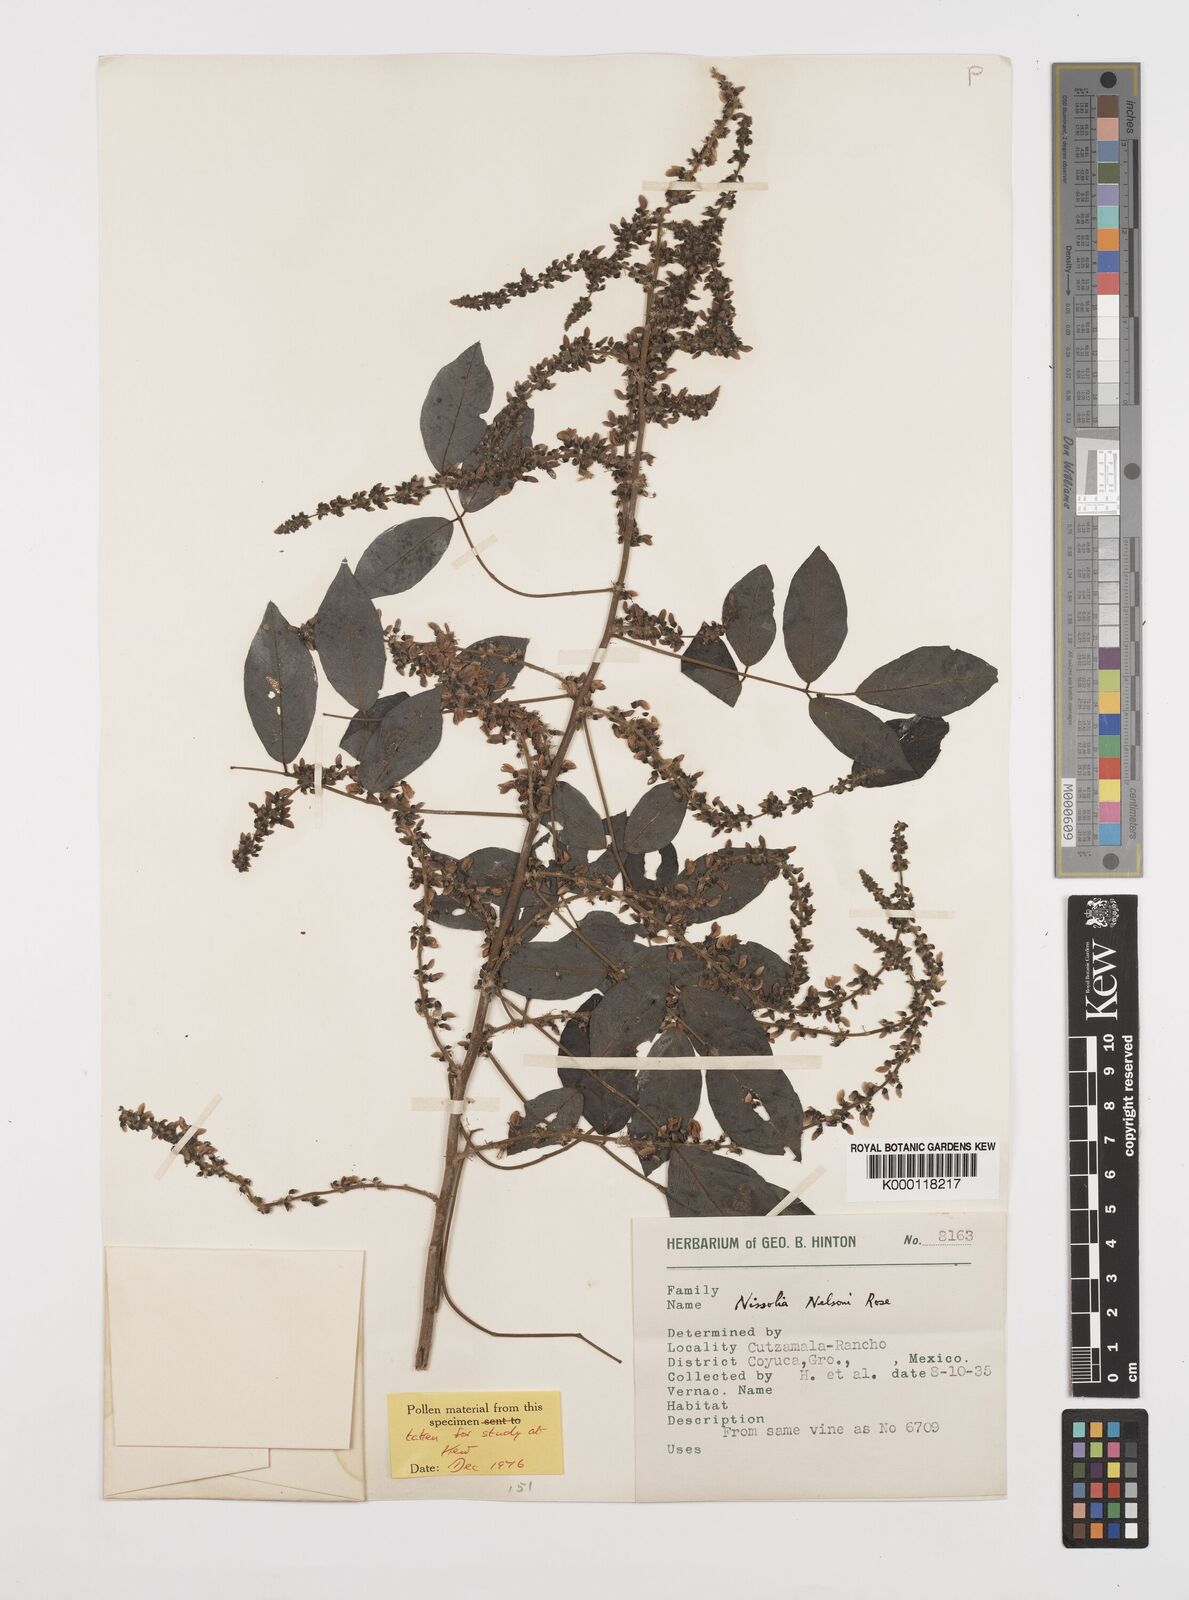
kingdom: Plantae
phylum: Tracheophyta
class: Magnoliopsida
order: Fabales
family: Fabaceae
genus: Nissolia
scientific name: Nissolia fruticosa
